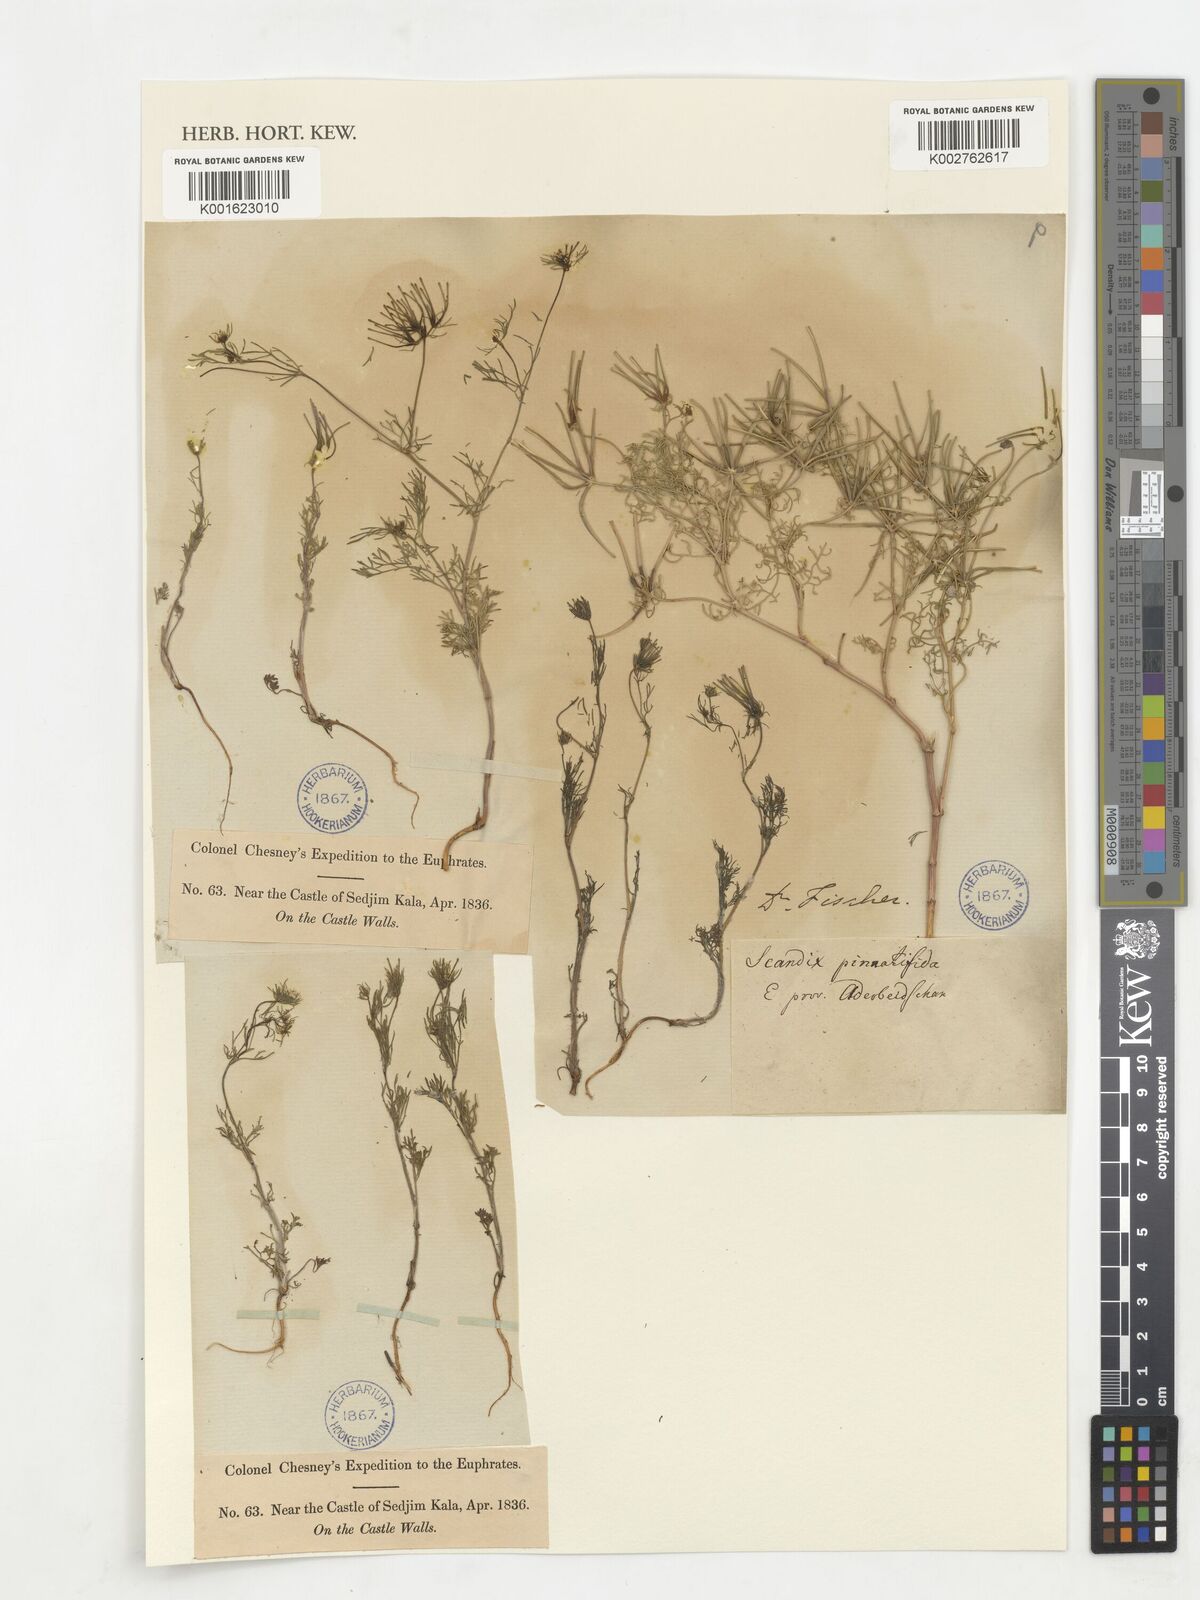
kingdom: Plantae
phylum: Tracheophyta
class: Magnoliopsida
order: Apiales
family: Apiaceae
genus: Scandix
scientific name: Scandix stellata
